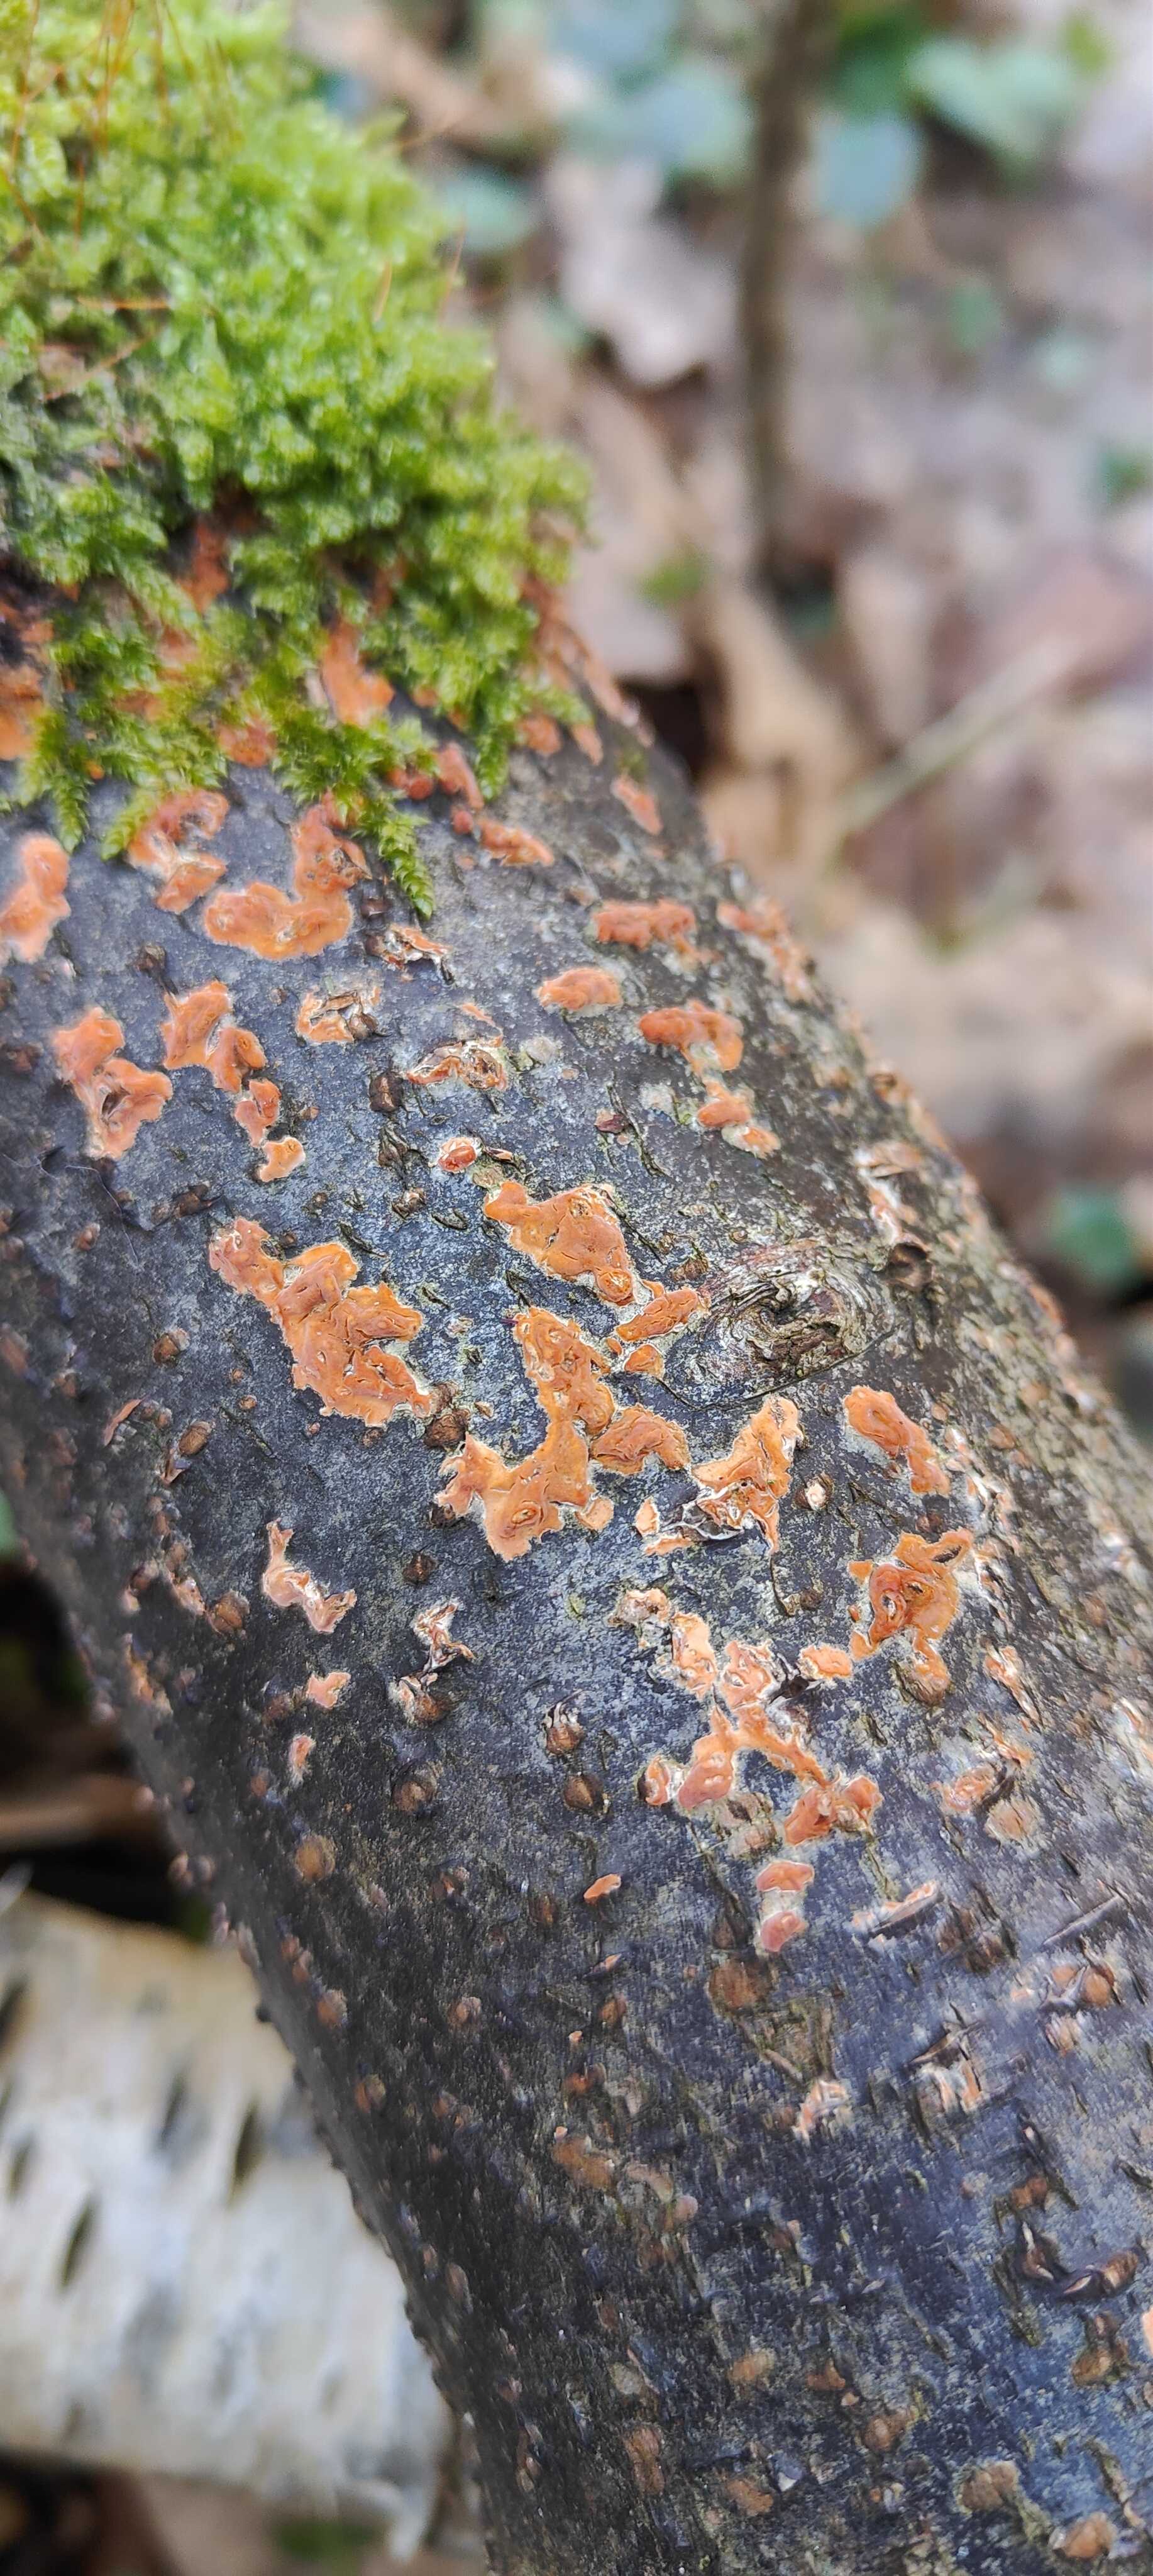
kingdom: Fungi
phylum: Basidiomycota
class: Agaricomycetes
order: Russulales
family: Peniophoraceae
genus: Peniophora
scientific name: Peniophora incarnata
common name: laksefarvet voksskind
